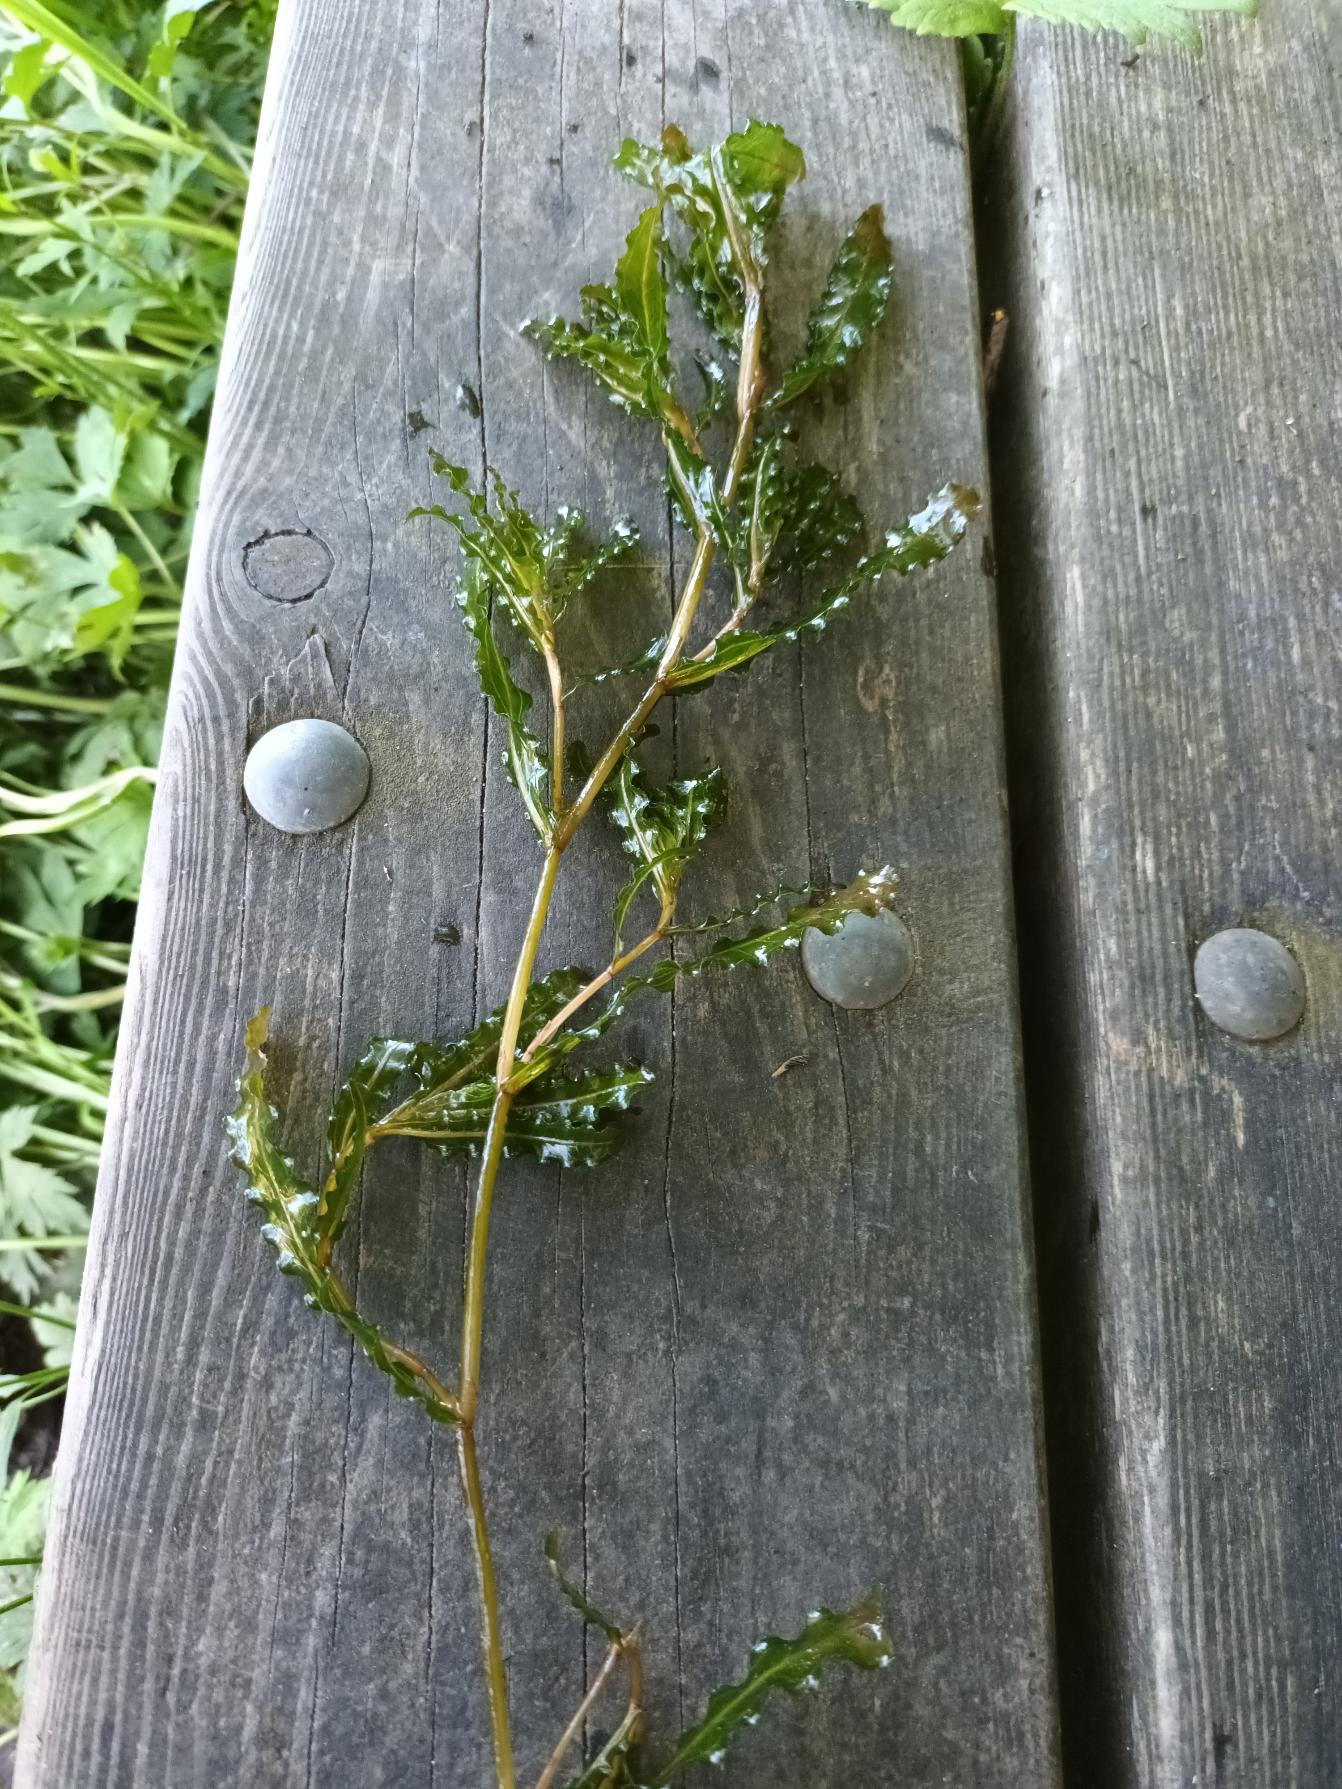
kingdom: Plantae
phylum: Tracheophyta
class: Liliopsida
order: Alismatales
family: Potamogetonaceae
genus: Potamogeton
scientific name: Potamogeton crispus
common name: Kruset vandaks
